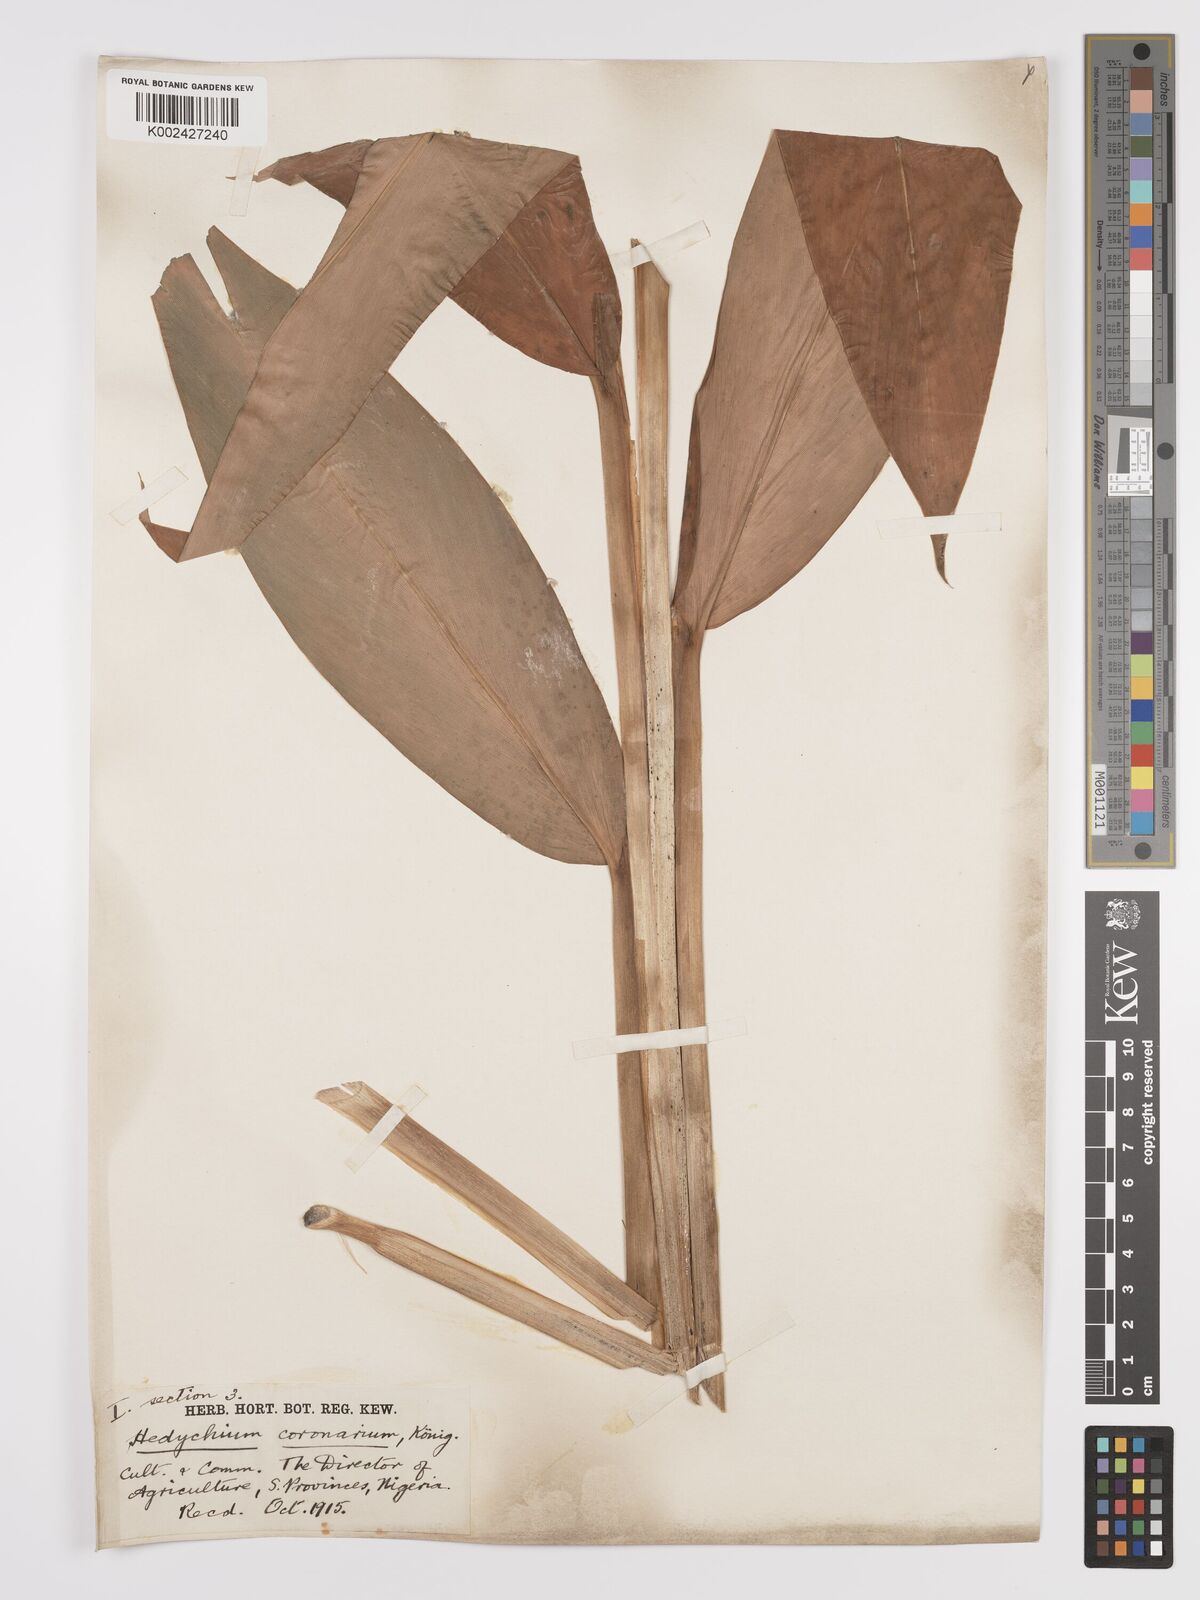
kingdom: Plantae
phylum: Tracheophyta
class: Liliopsida
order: Zingiberales
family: Zingiberaceae
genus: Hedychium
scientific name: Hedychium coronarium
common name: White garland-lily
